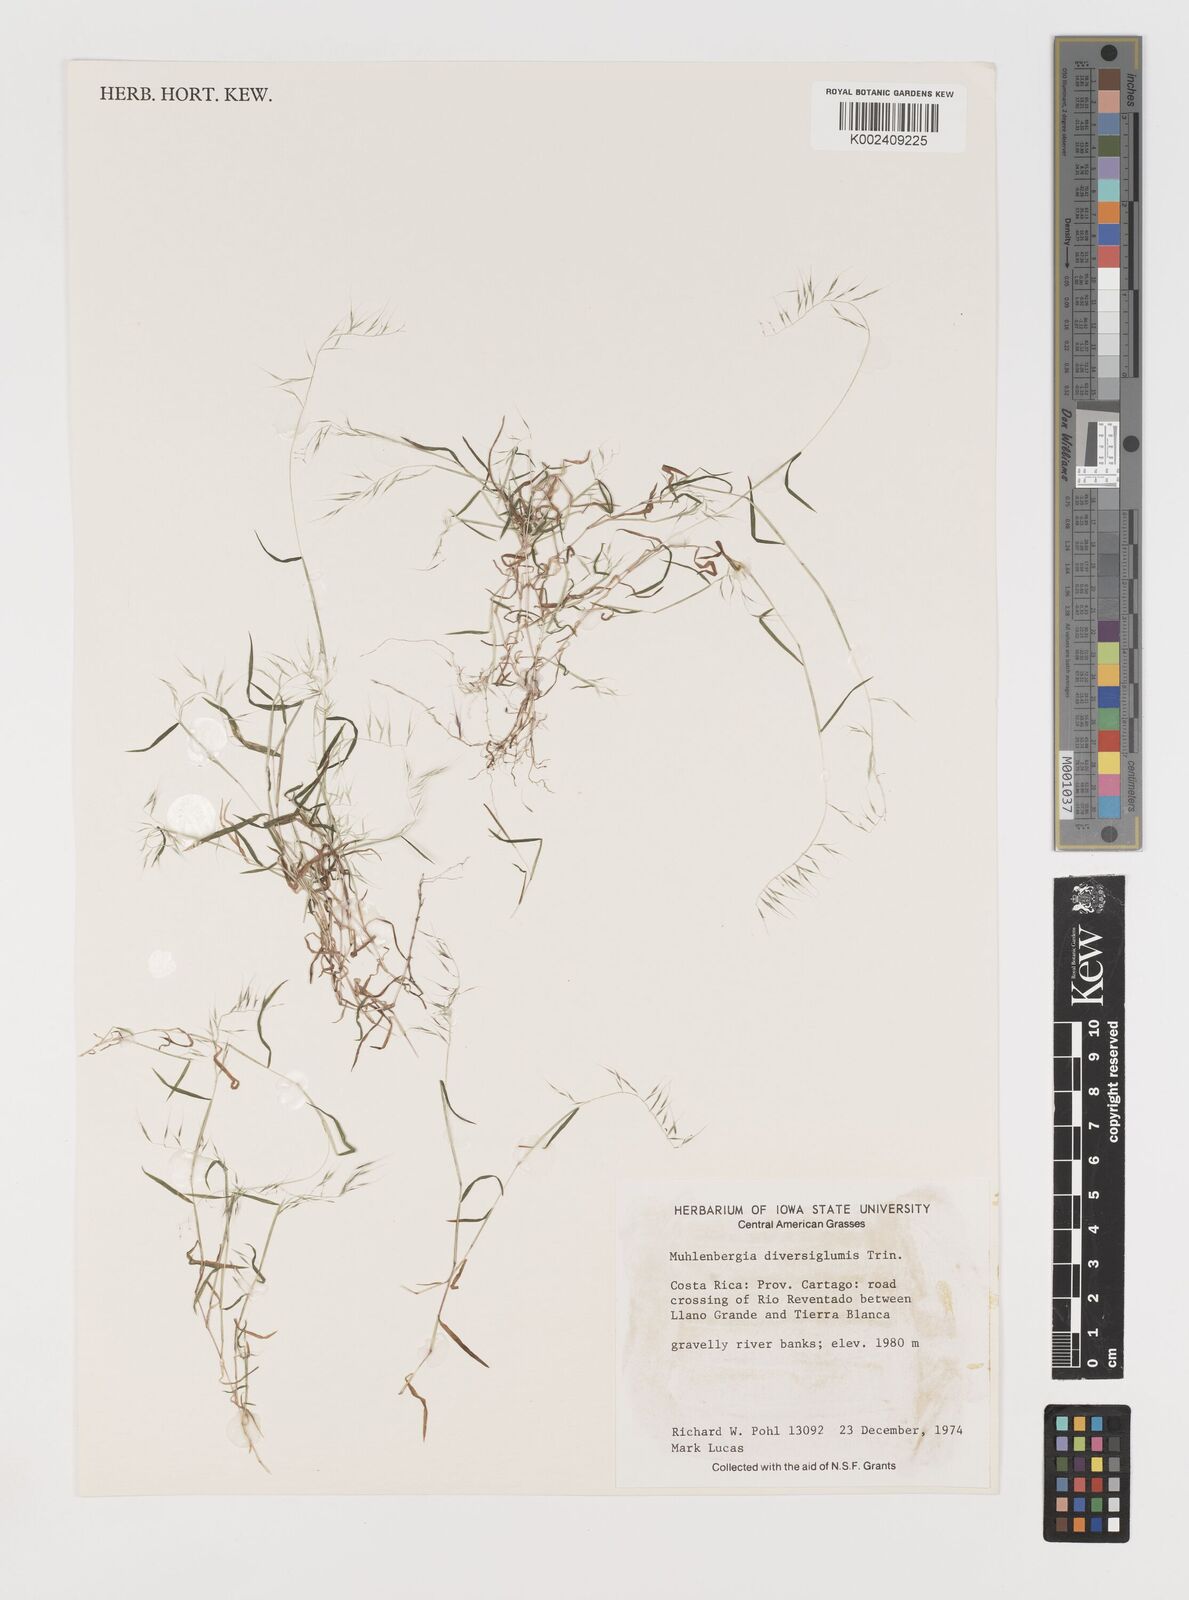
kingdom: Plantae
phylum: Tracheophyta
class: Liliopsida
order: Poales
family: Poaceae
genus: Muhlenbergia
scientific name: Muhlenbergia diversiglumis
